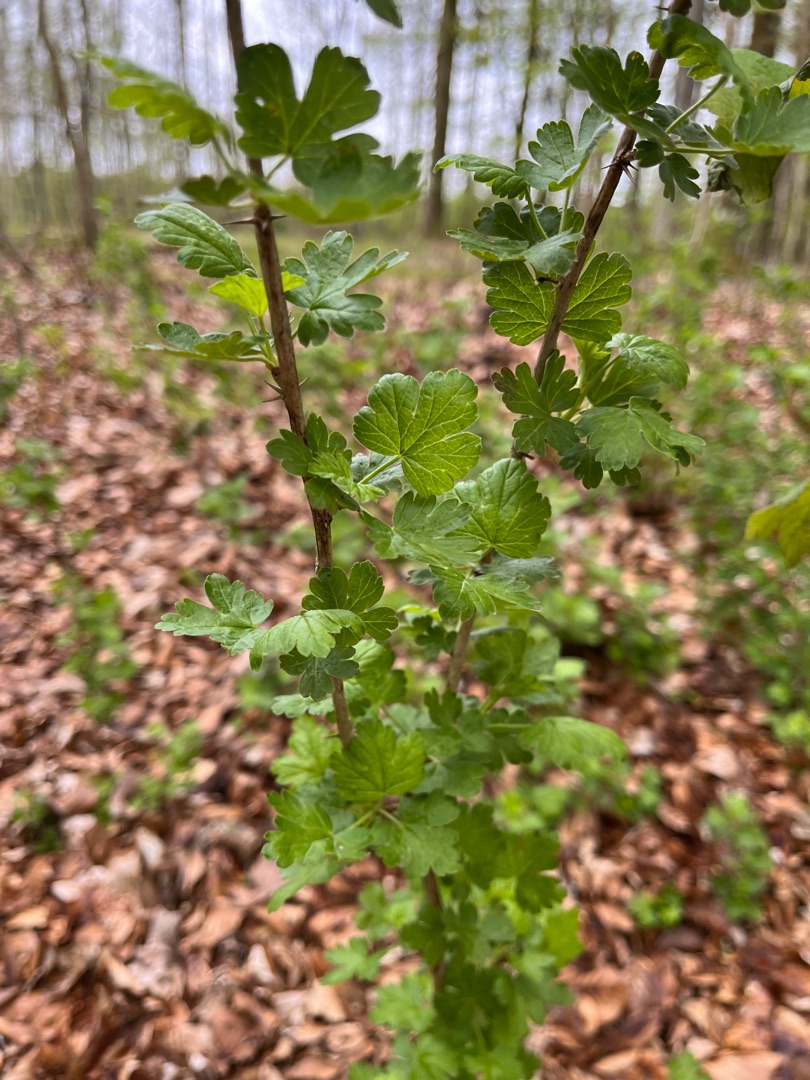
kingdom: Plantae
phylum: Tracheophyta
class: Magnoliopsida
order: Saxifragales
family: Grossulariaceae
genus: Ribes
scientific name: Ribes uva-crispa
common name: Stikkelsbær
